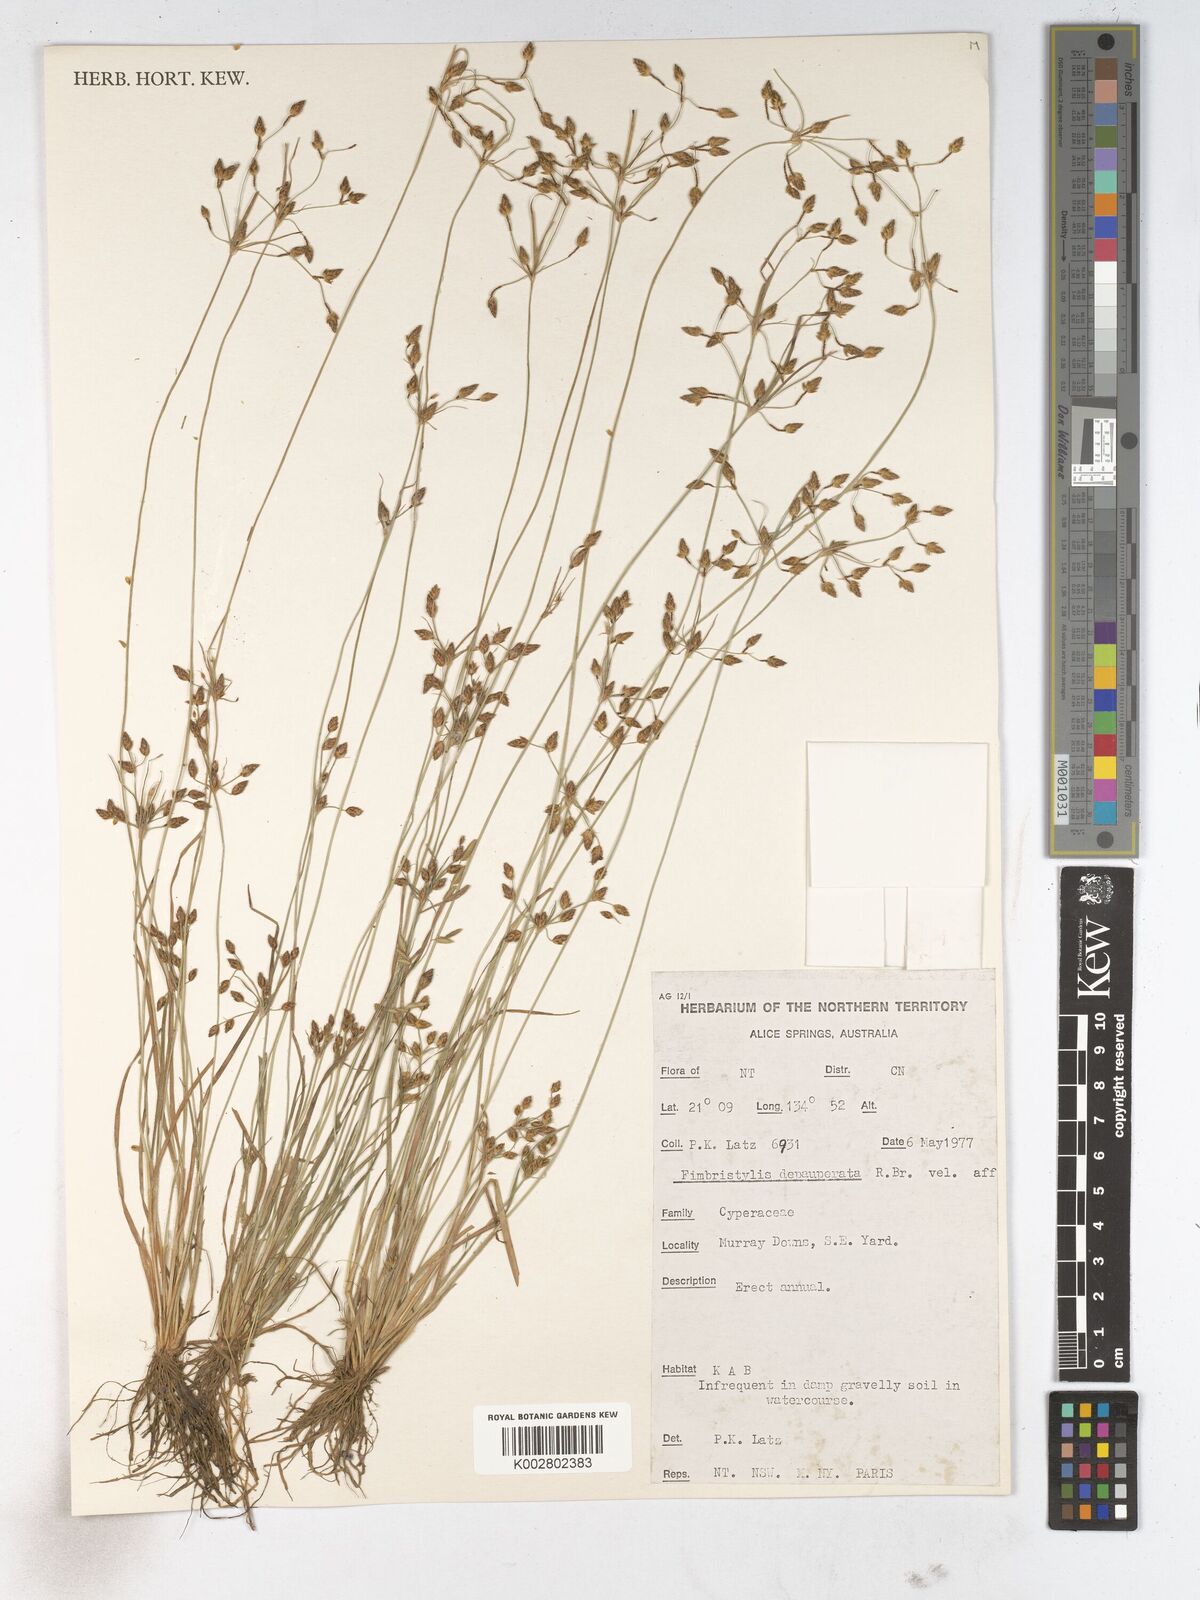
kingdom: Plantae
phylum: Tracheophyta
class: Liliopsida
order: Poales
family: Cyperaceae
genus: Fimbristylis
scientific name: Fimbristylis dichotoma
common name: Forked fimbry
